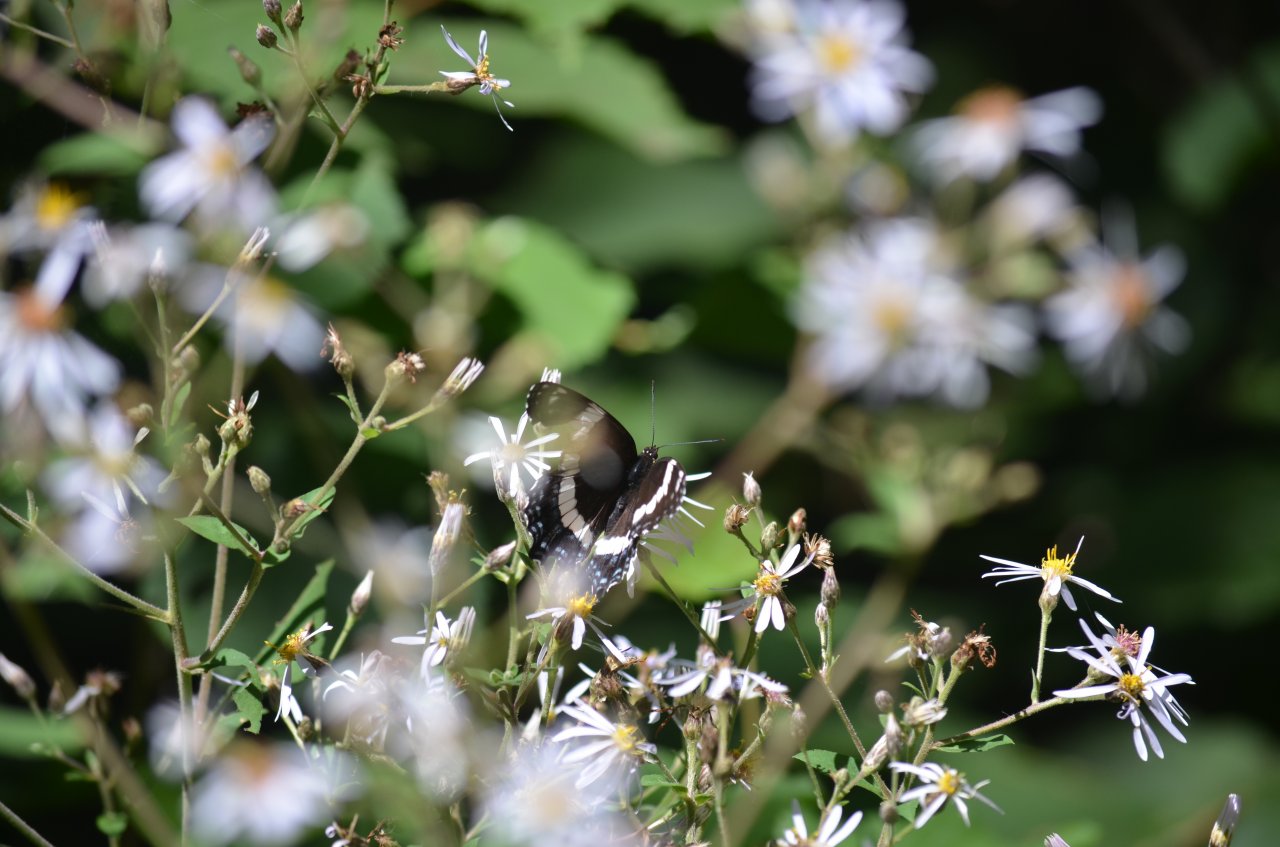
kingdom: Animalia
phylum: Arthropoda
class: Insecta
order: Lepidoptera
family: Nymphalidae
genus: Limenitis
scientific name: Limenitis arthemis
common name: Red-spotted Admiral
